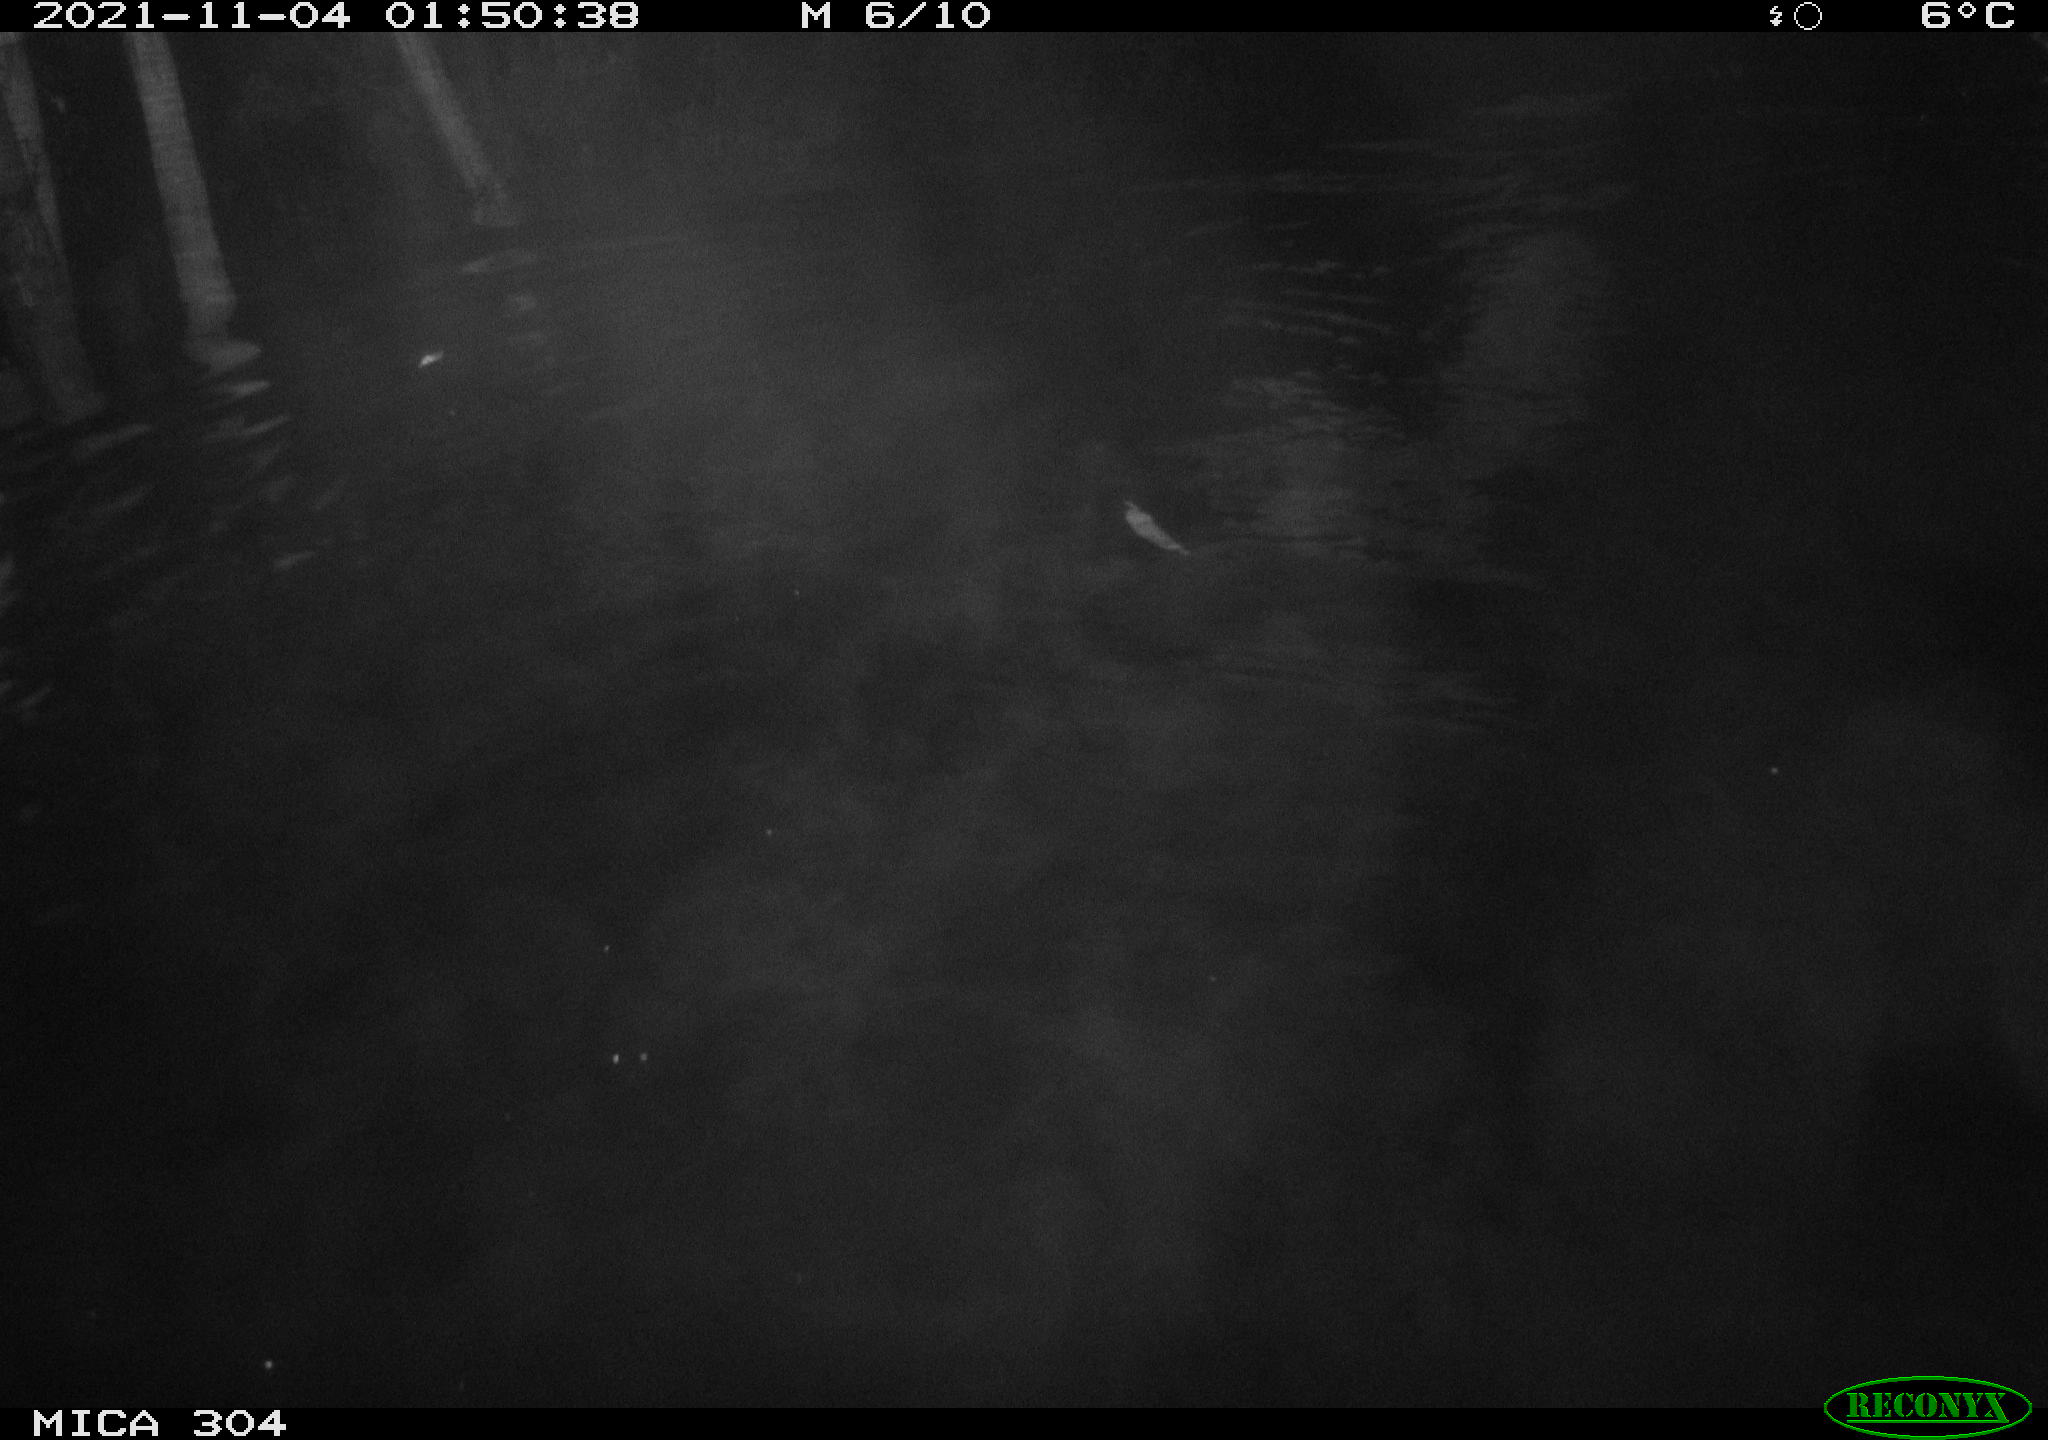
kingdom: Animalia
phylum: Chordata
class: Mammalia
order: Rodentia
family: Cricetidae
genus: Ondatra
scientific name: Ondatra zibethicus
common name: Muskrat
